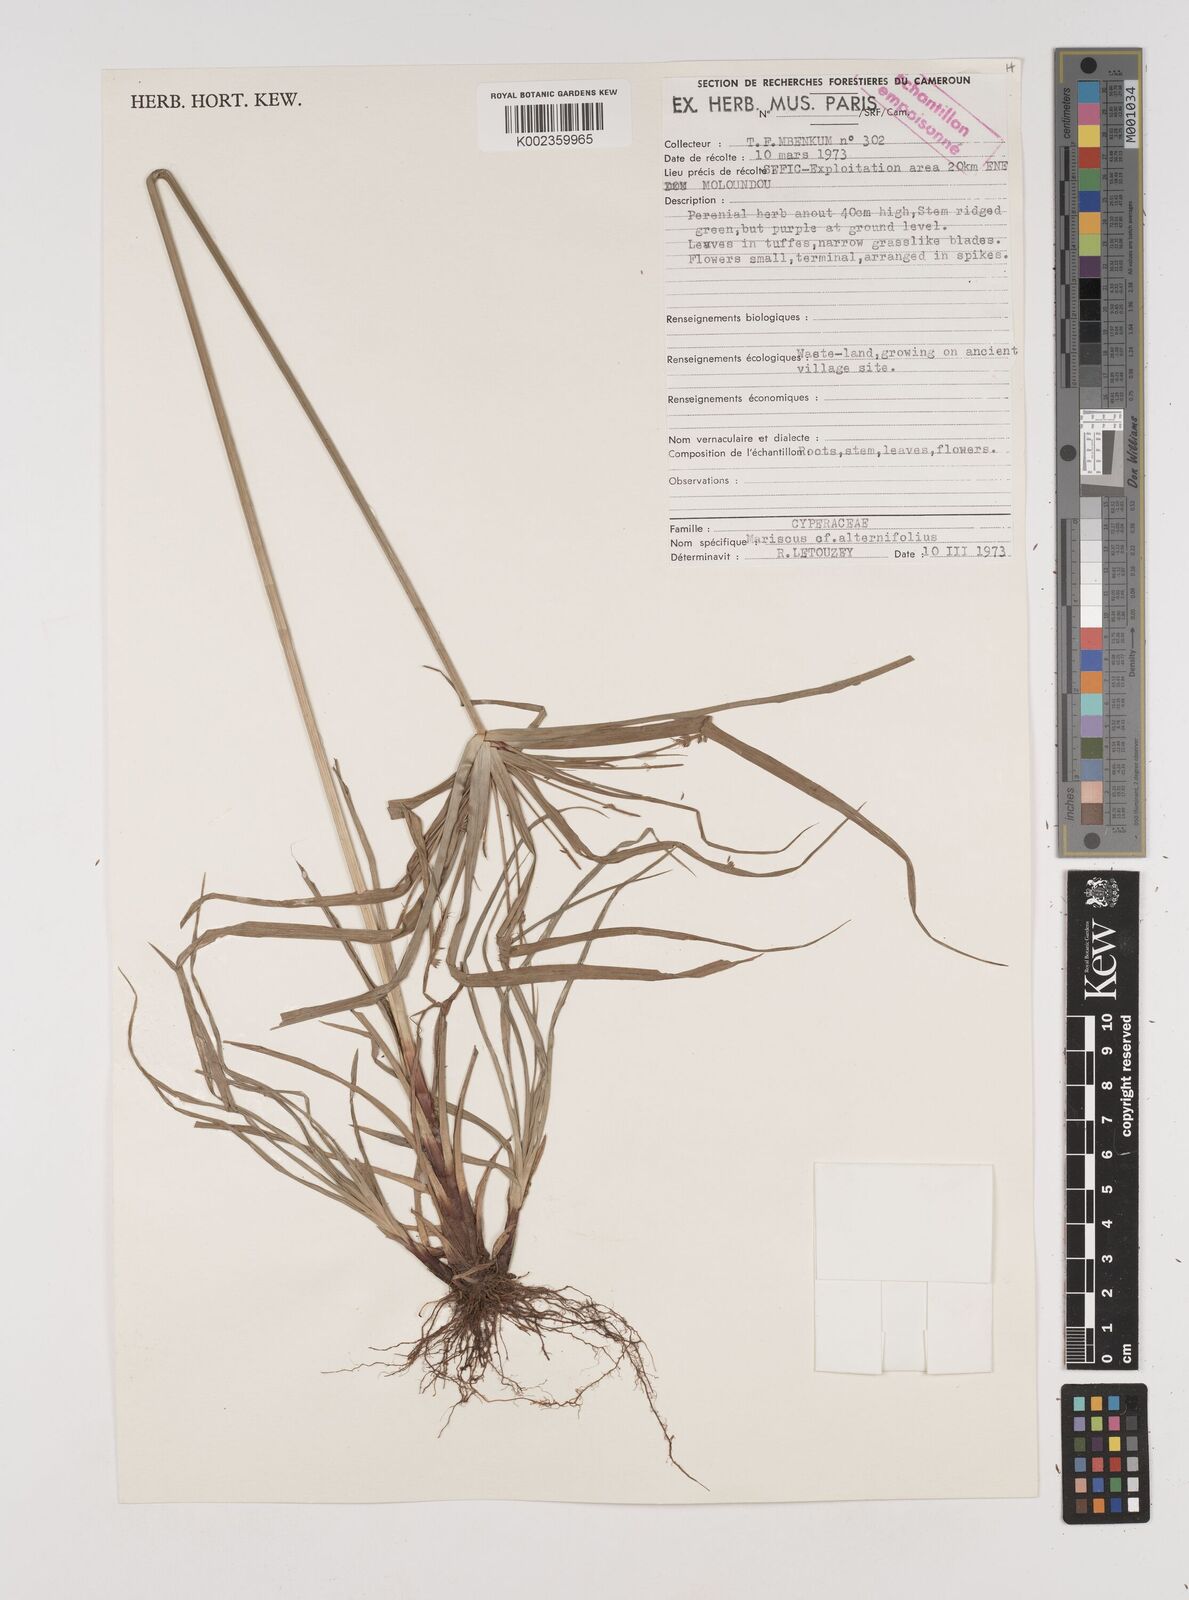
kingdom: Plantae
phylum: Tracheophyta
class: Liliopsida
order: Poales
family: Cyperaceae
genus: Cyperus
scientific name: Cyperus cyperoides
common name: Pacific island flat sedge
